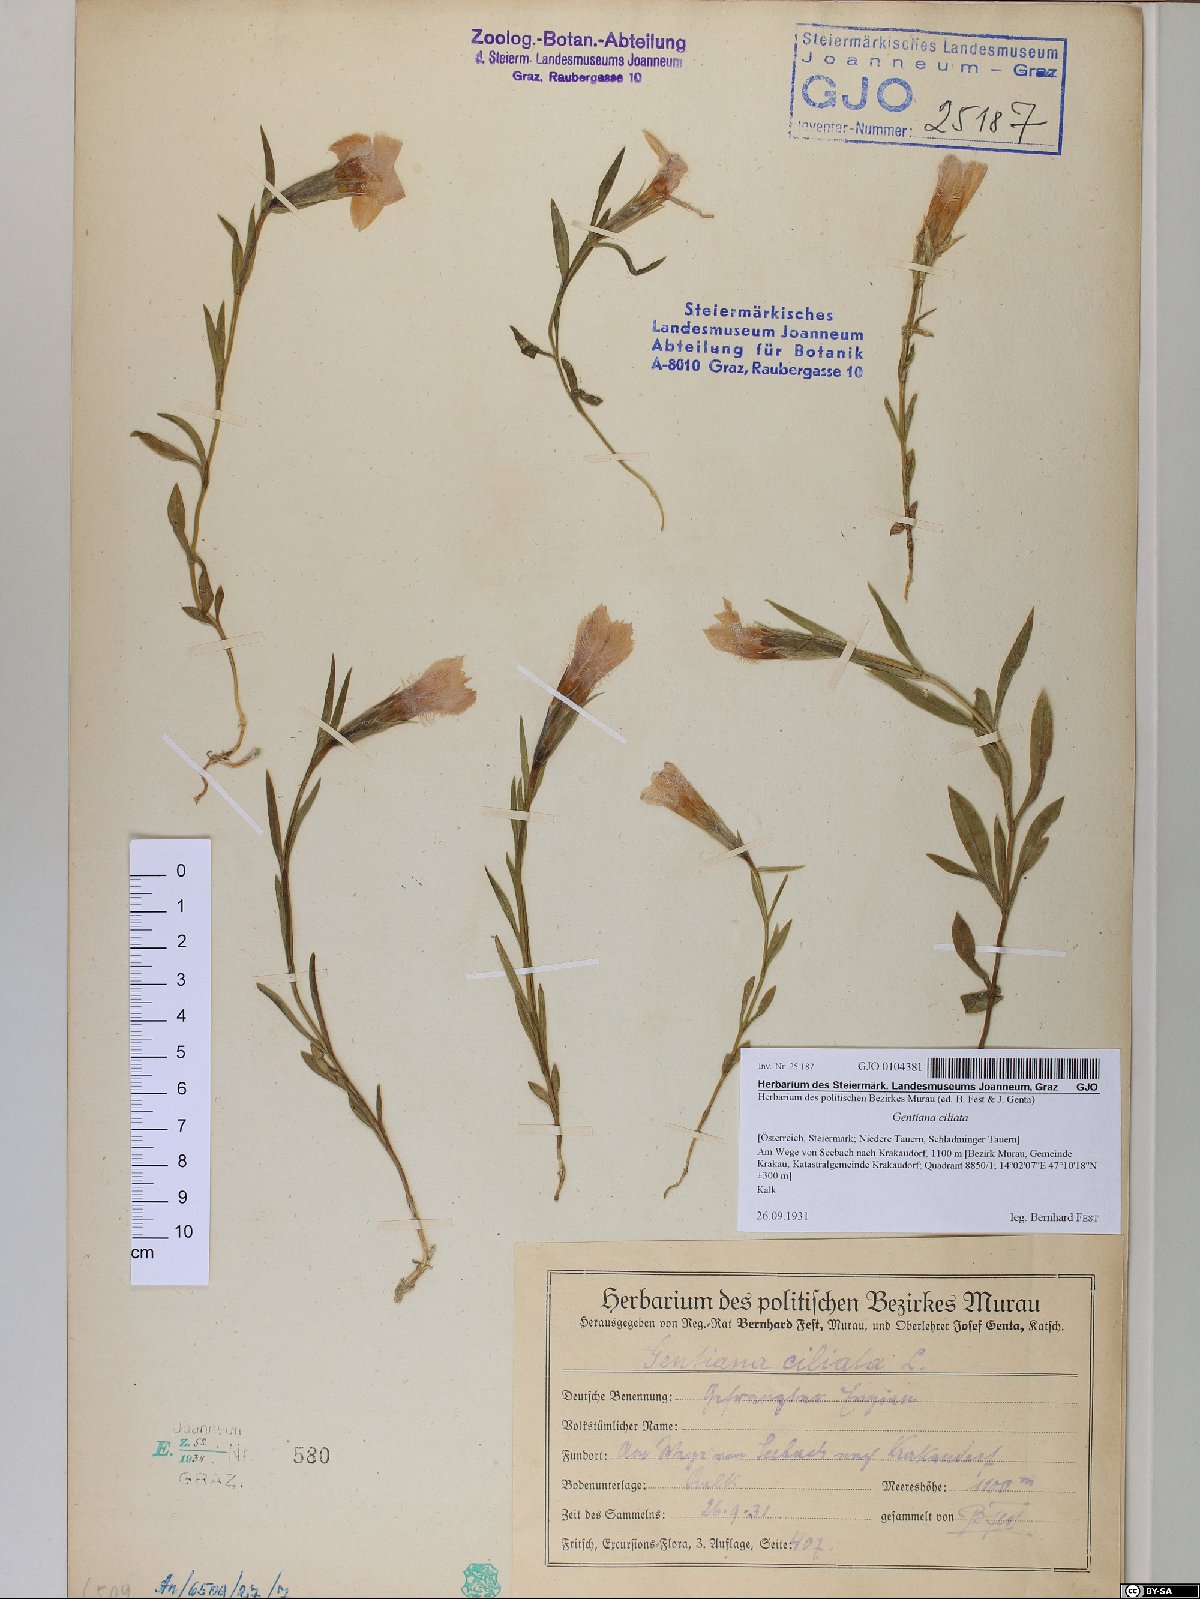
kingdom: Plantae
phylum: Tracheophyta
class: Magnoliopsida
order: Gentianales
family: Gentianaceae
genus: Gentianopsis
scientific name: Gentianopsis ciliata
